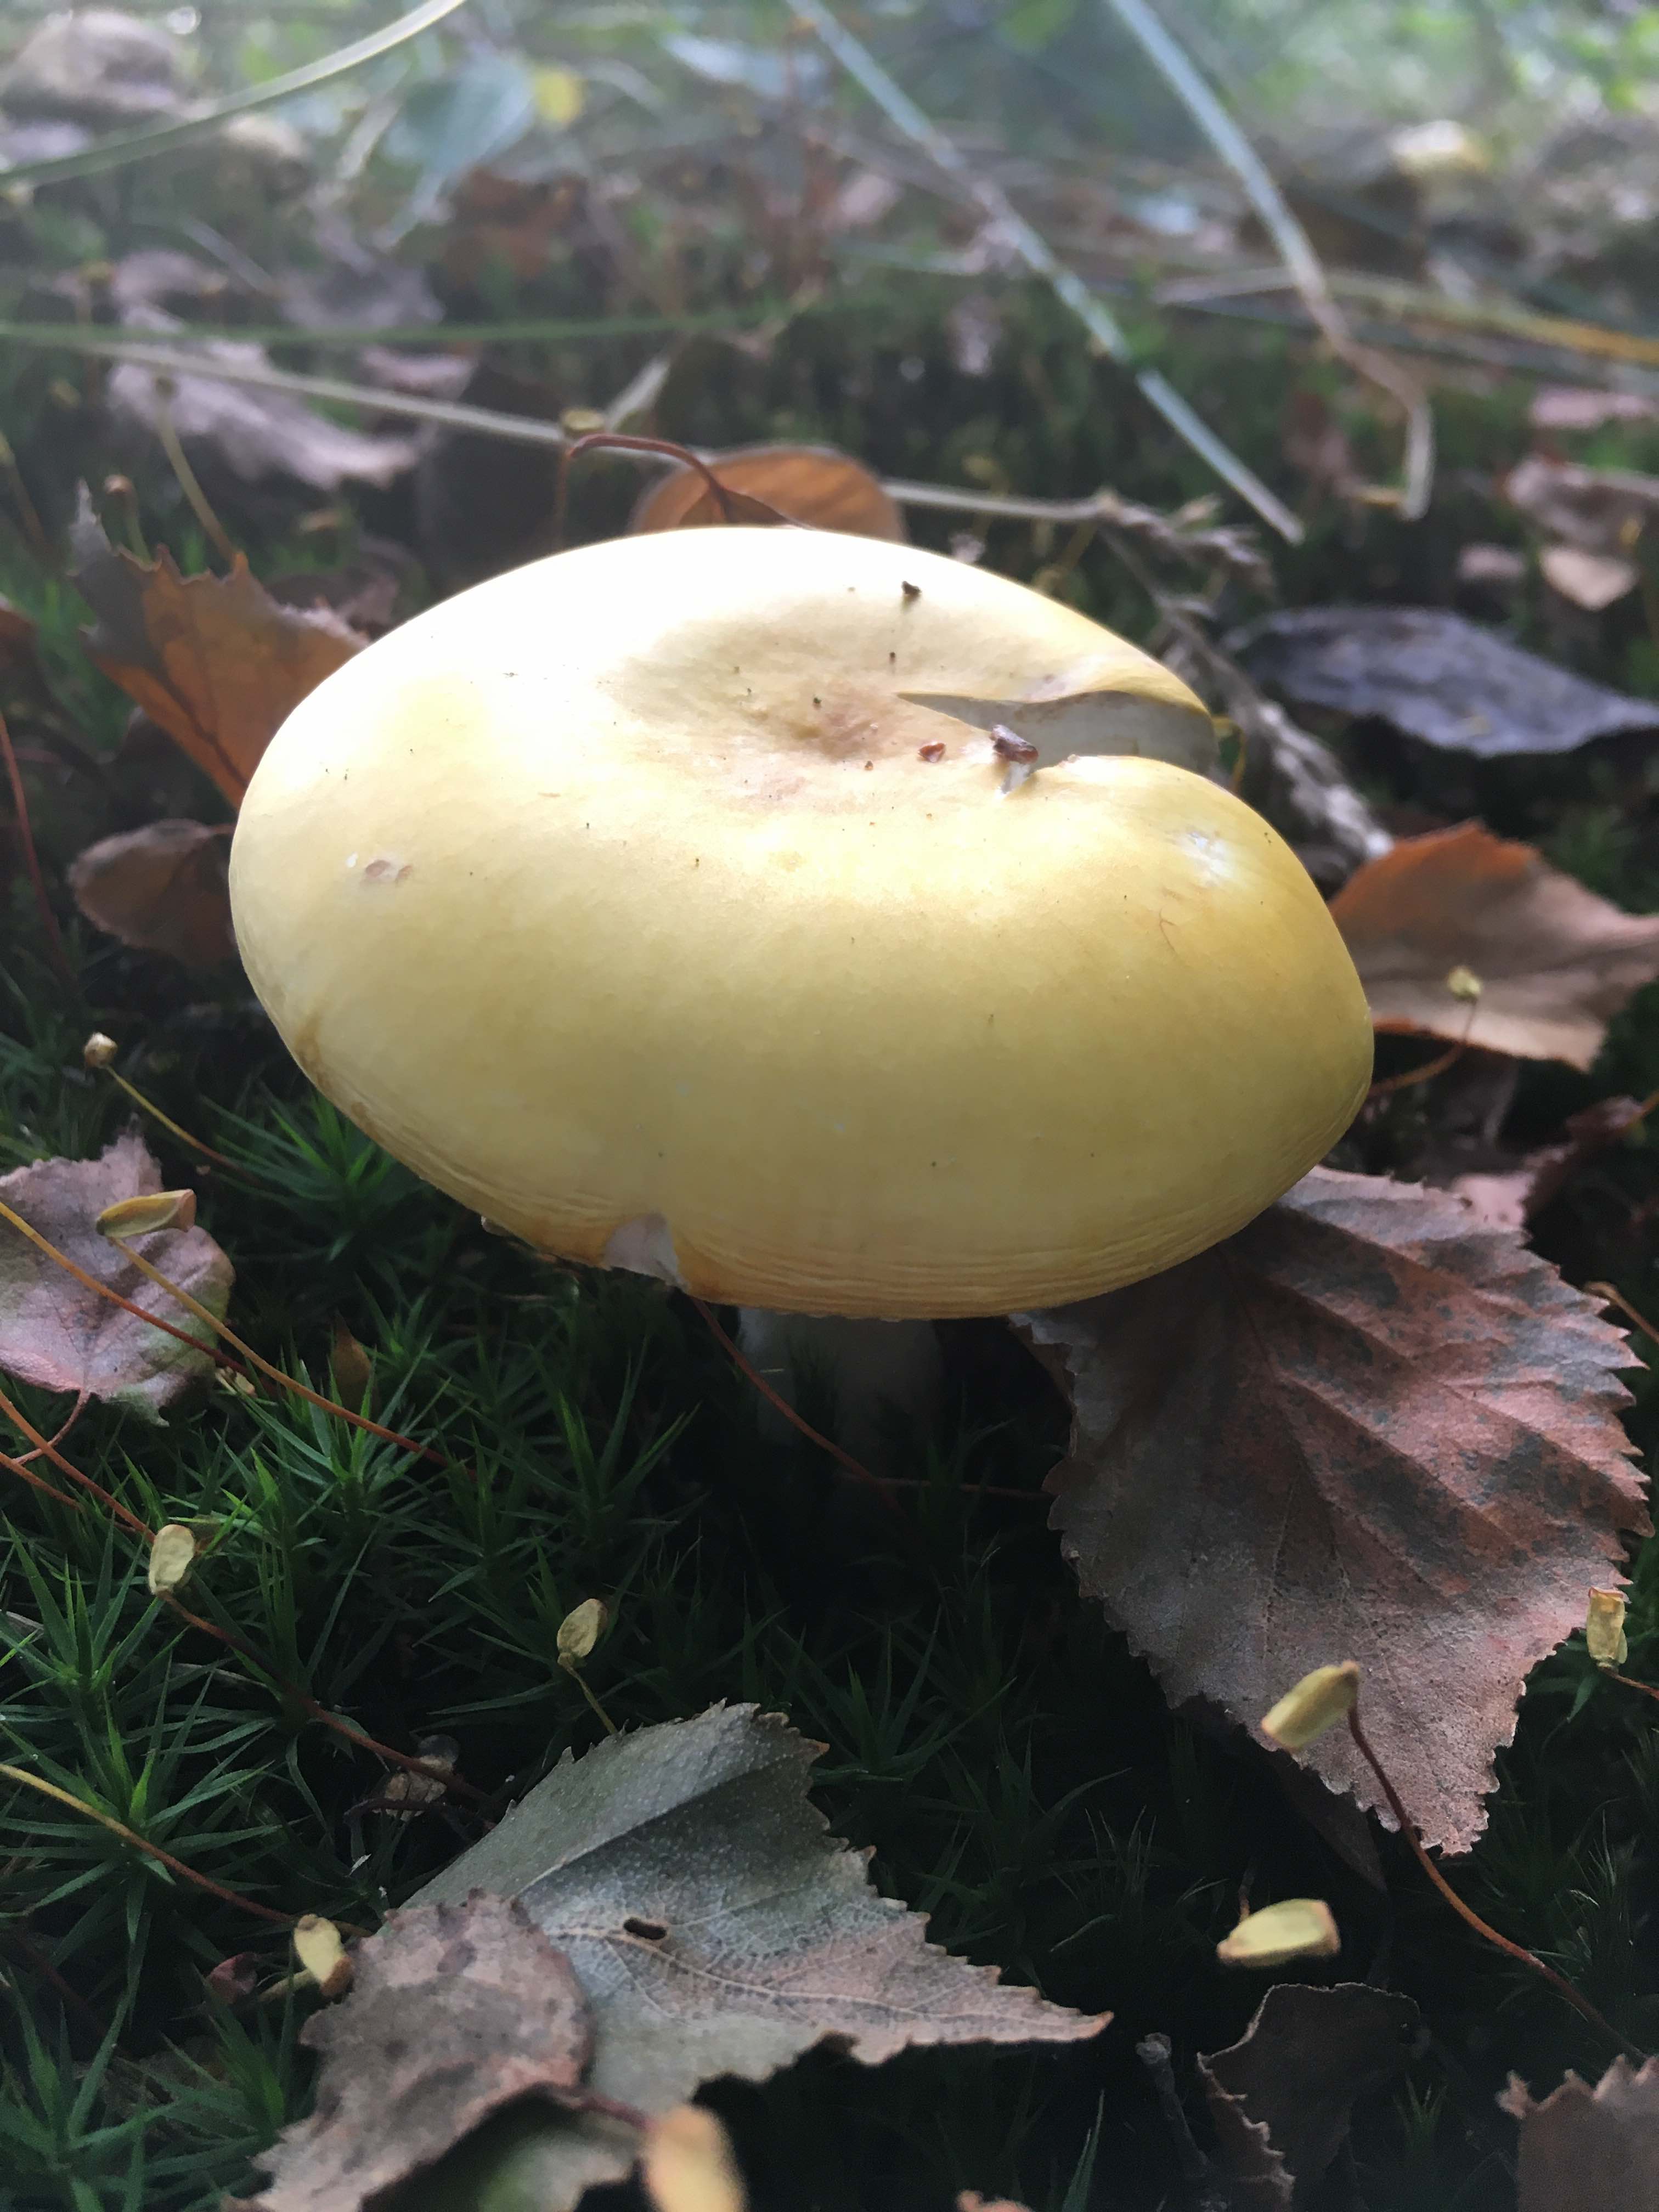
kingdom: Fungi
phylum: Basidiomycota
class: Agaricomycetes
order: Russulales
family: Russulaceae
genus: Russula
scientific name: Russula claroflava
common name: birke-skørhat
